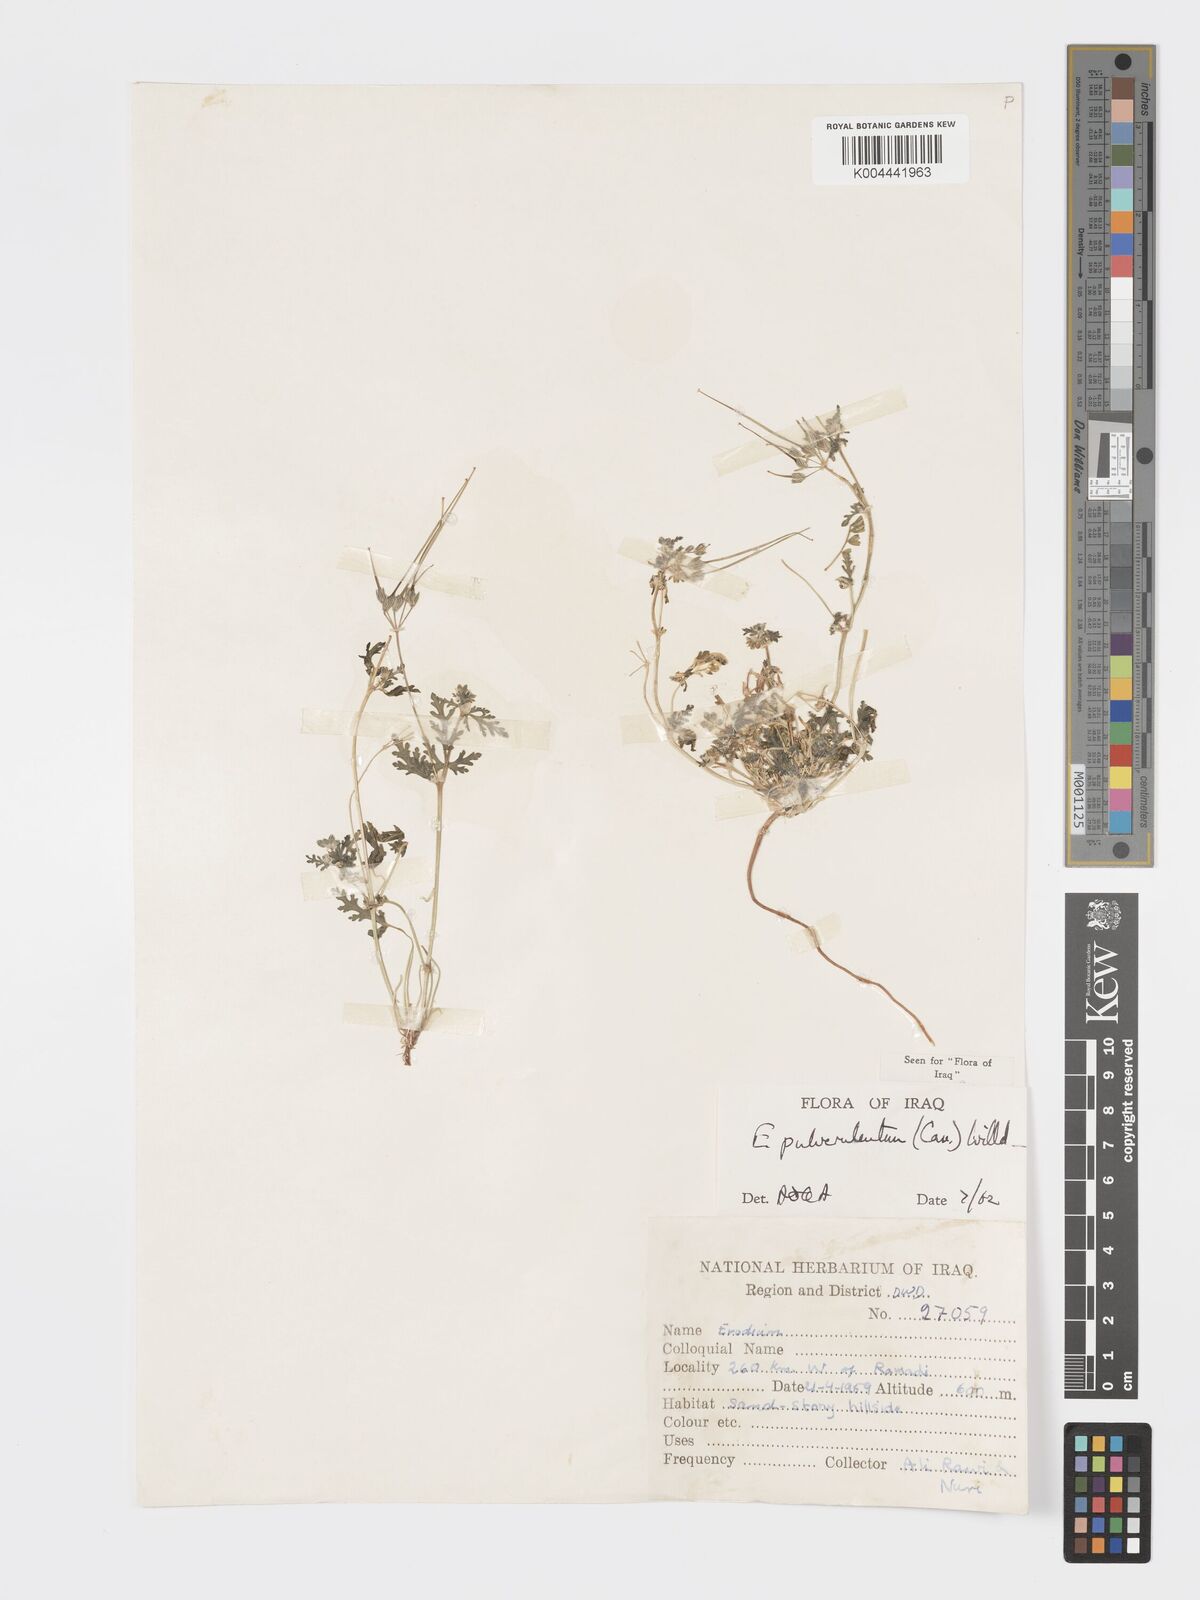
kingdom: Plantae
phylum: Tracheophyta
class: Magnoliopsida
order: Geraniales
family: Geraniaceae
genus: Erodium
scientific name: Erodium laciniatum
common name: Cutleaf stork's bill
